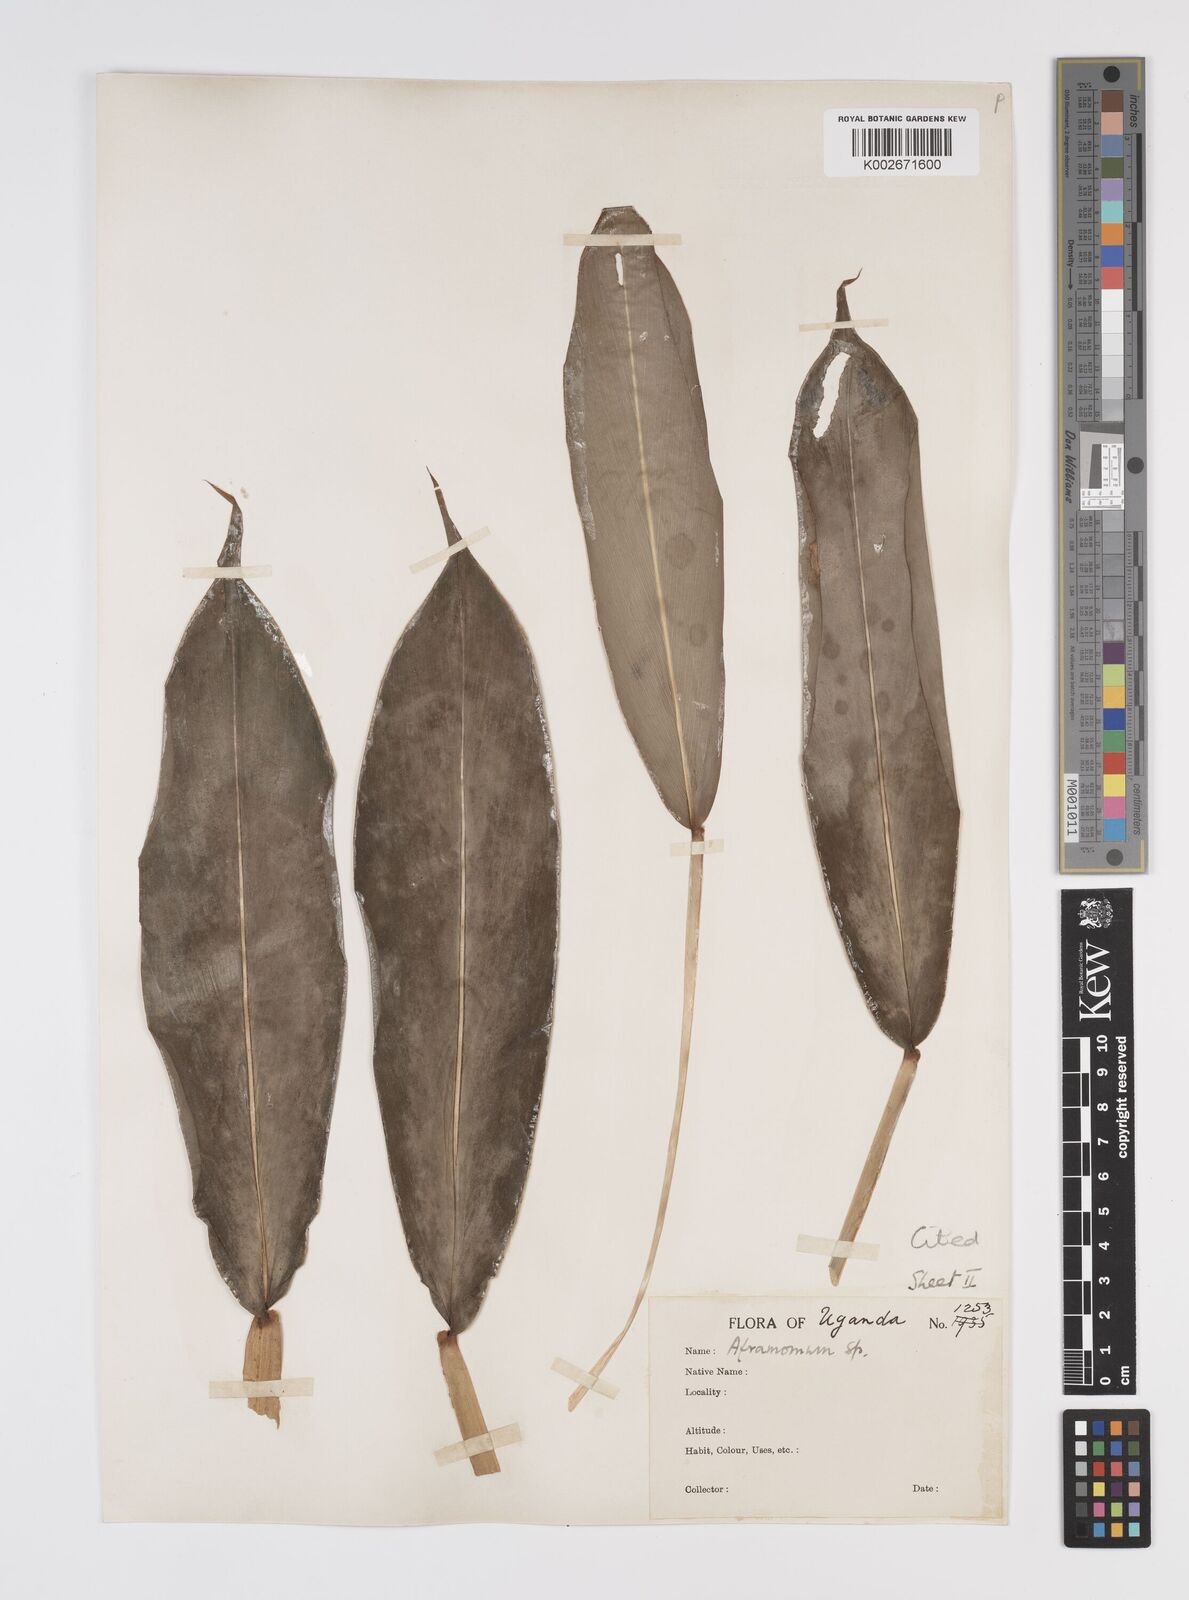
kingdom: Plantae
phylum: Tracheophyta
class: Liliopsida
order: Zingiberales
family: Zingiberaceae
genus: Aframomum
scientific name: Aframomum verrucosum
